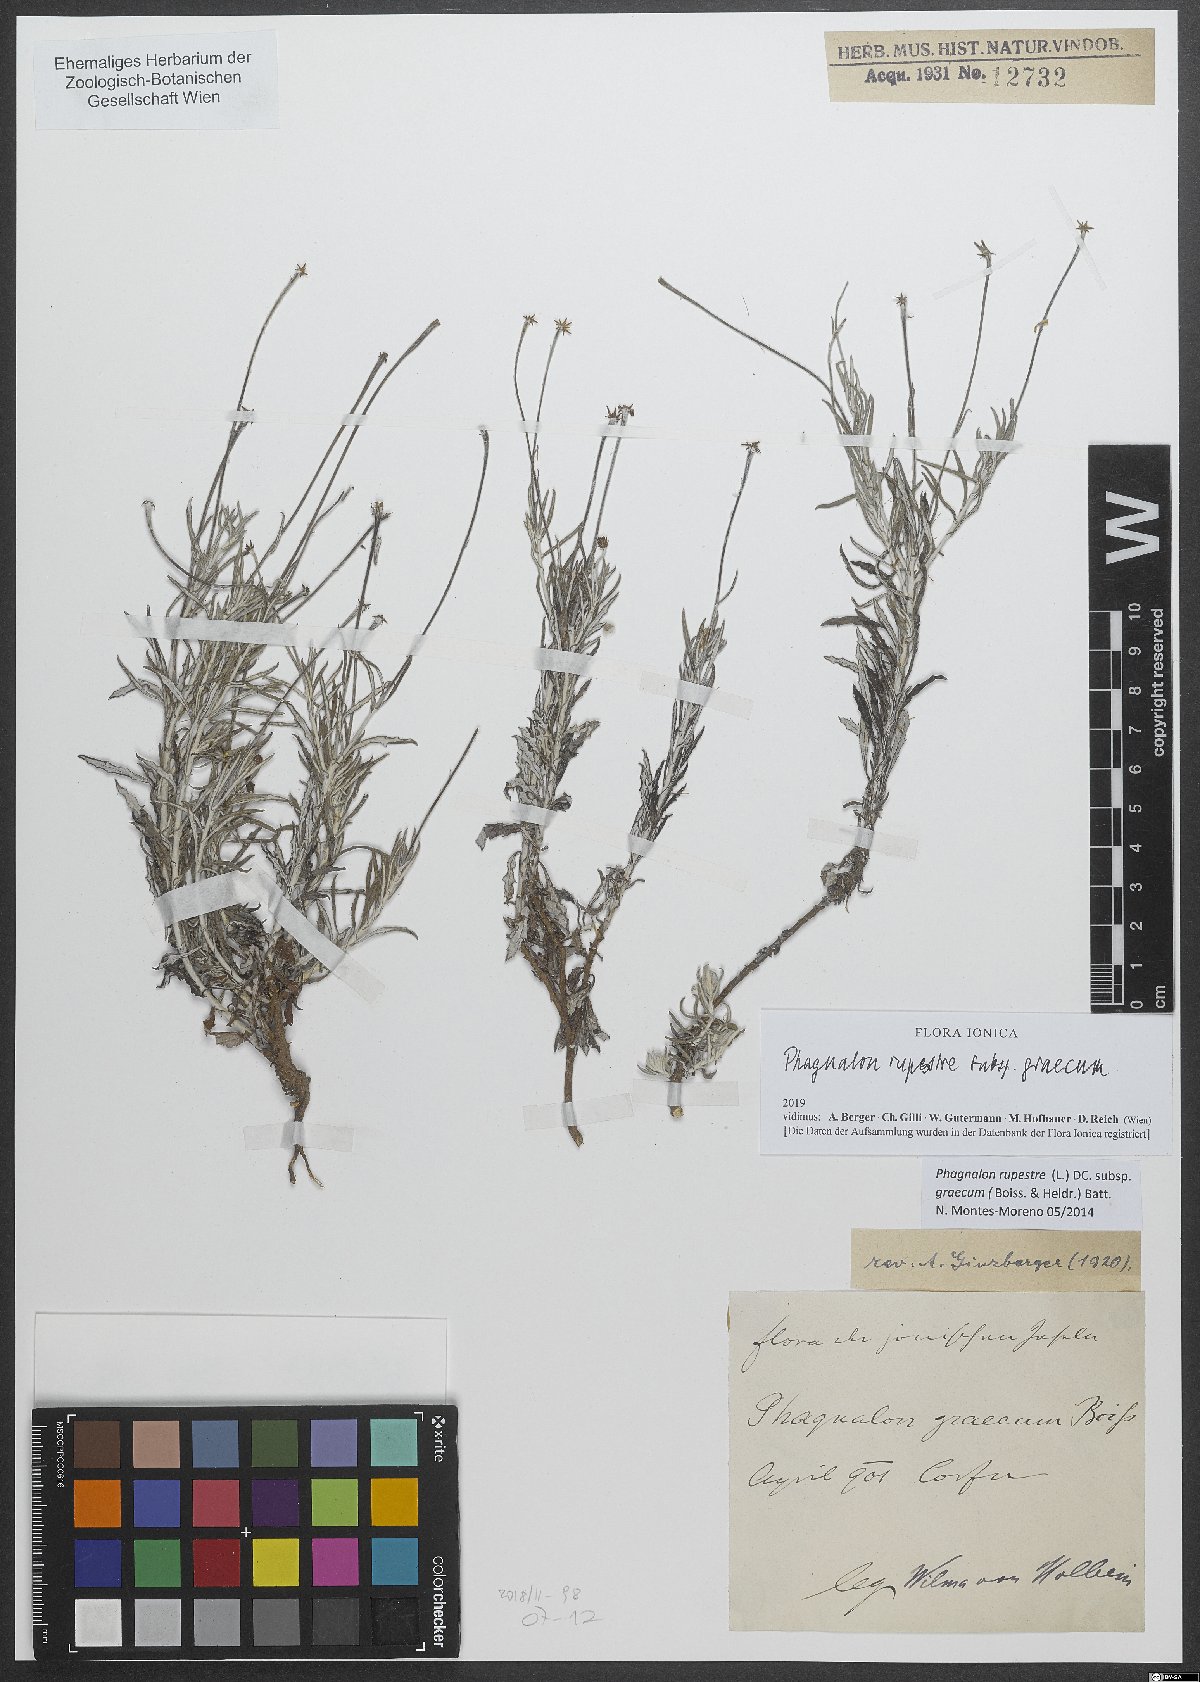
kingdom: Plantae
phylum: Tracheophyta
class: Magnoliopsida
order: Asterales
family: Asteraceae
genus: Phagnalon
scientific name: Phagnalon graecum
